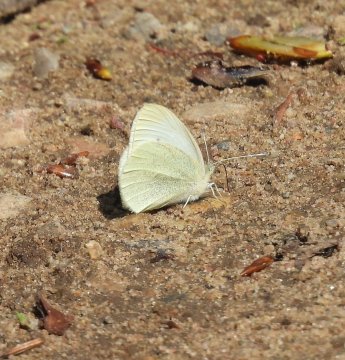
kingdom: Animalia
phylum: Arthropoda
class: Insecta
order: Lepidoptera
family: Pieridae
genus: Pieris
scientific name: Pieris oleracea
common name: Mustard White
